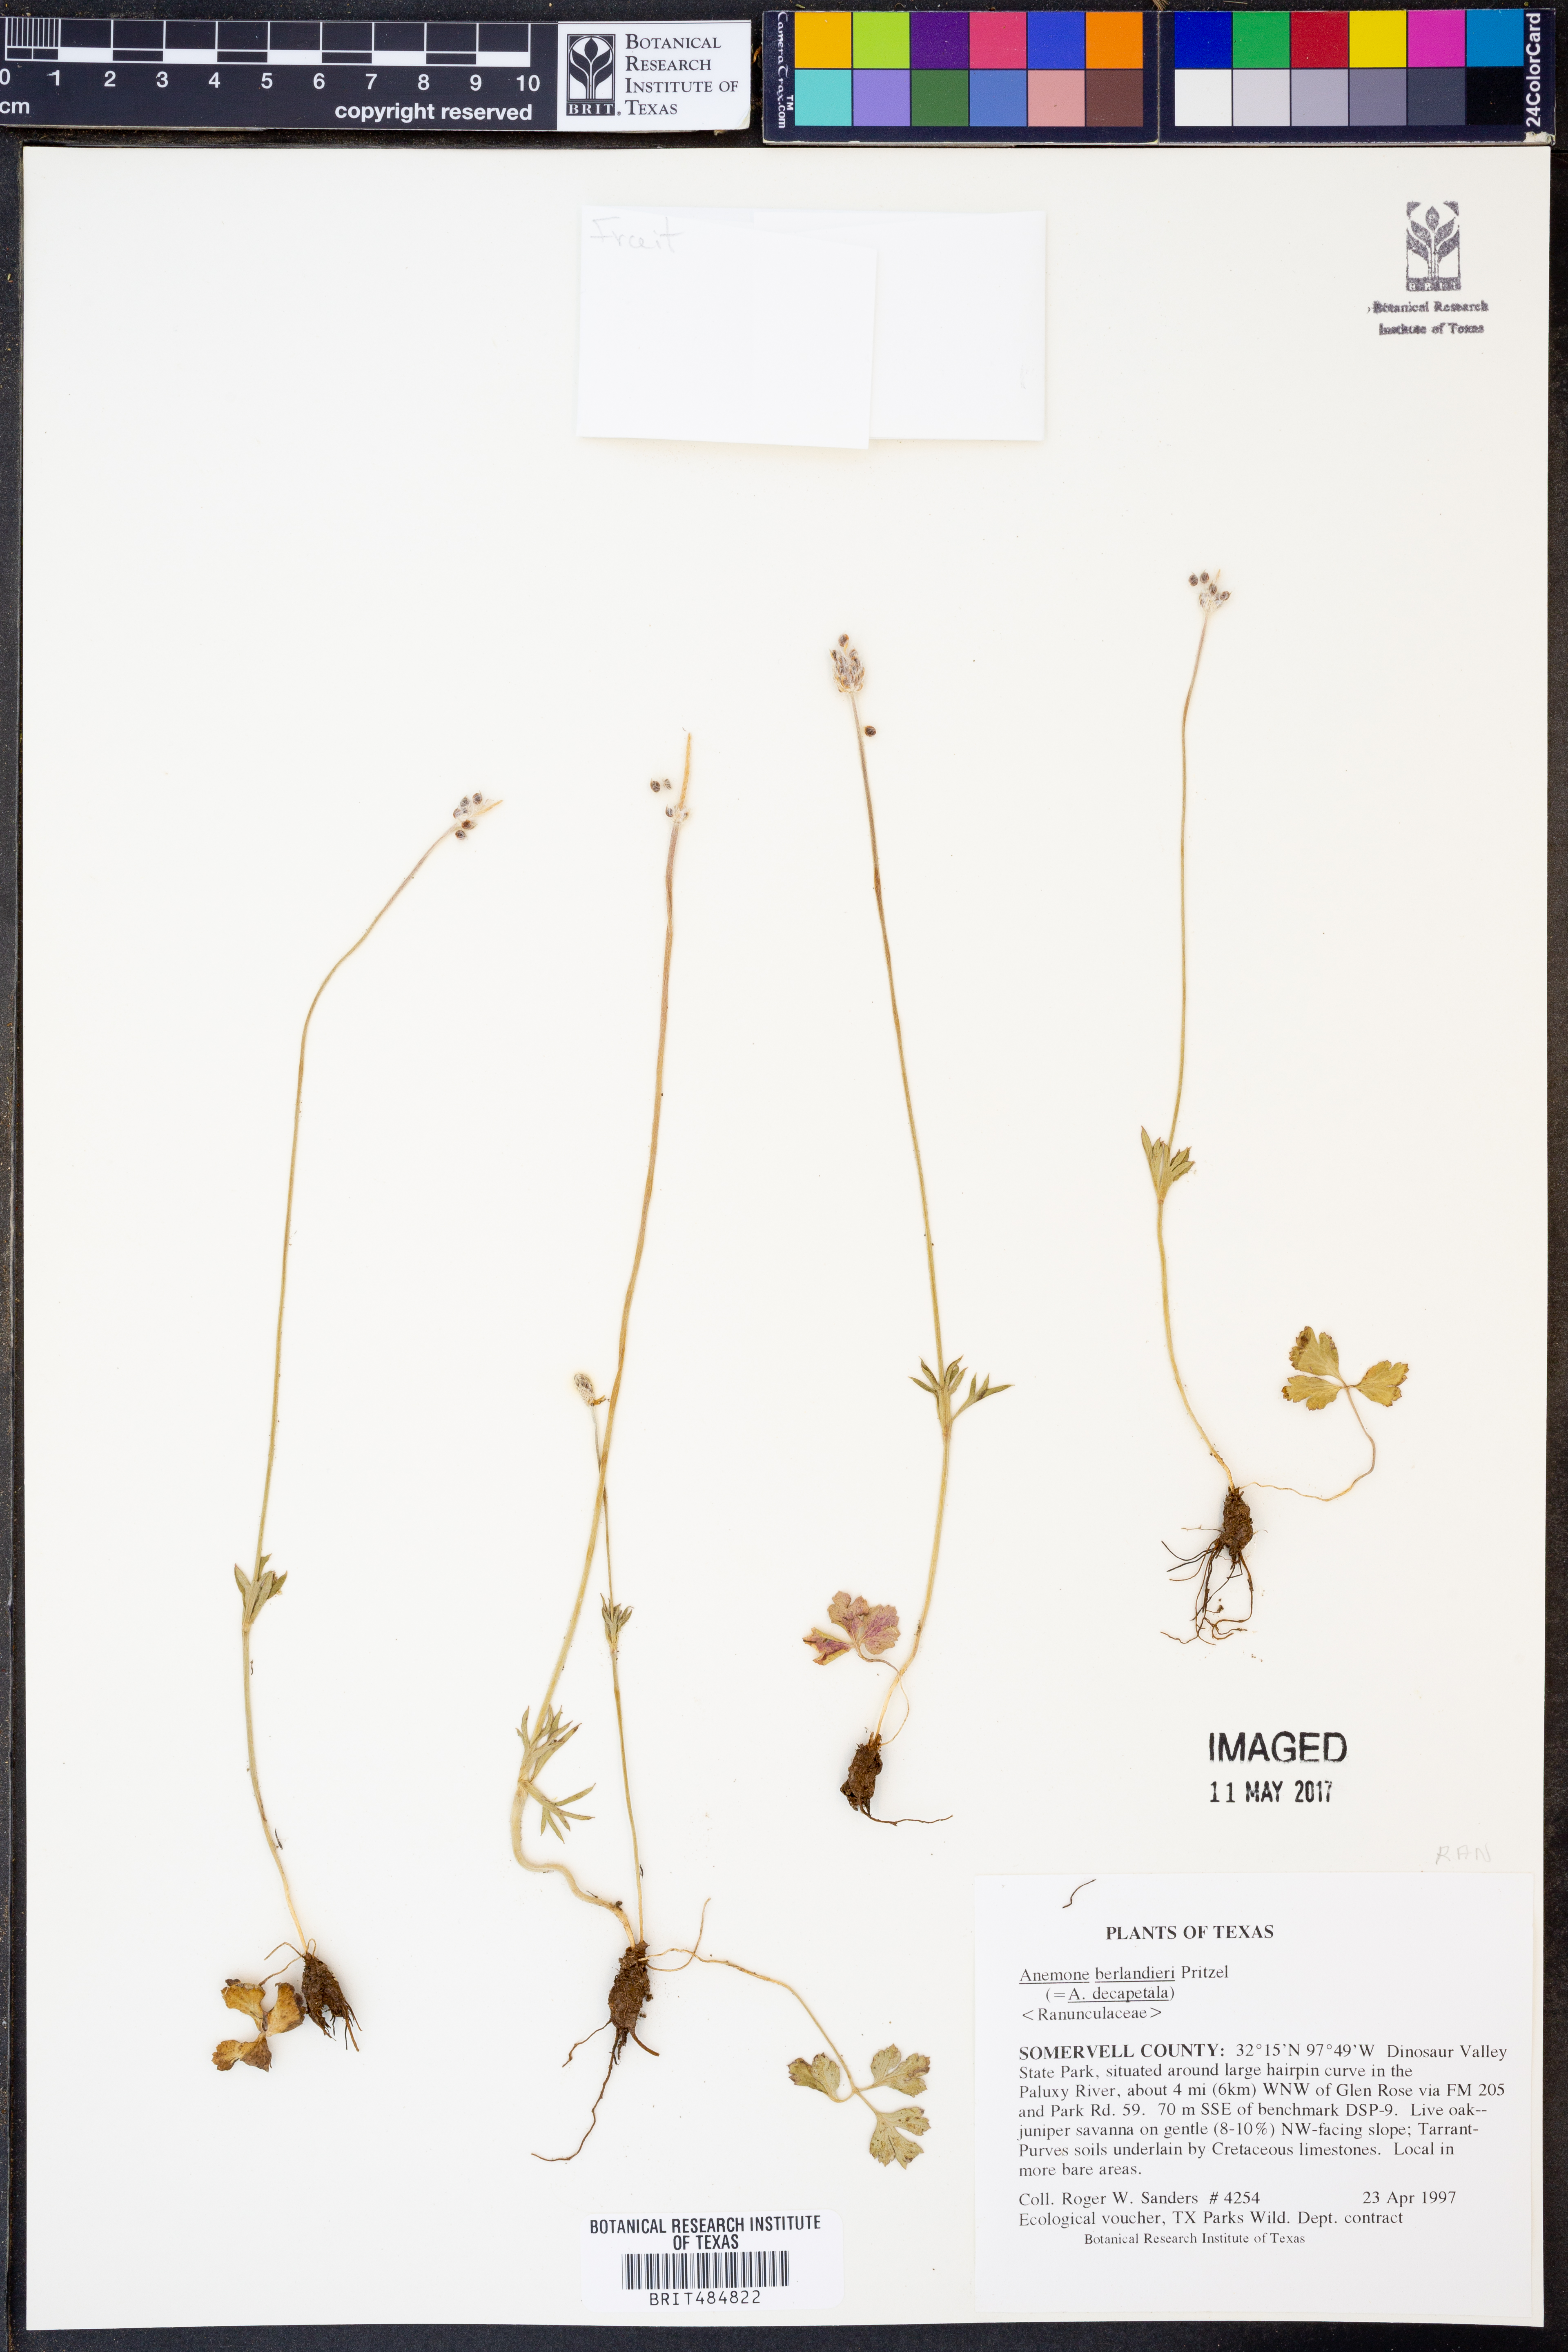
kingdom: Plantae
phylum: Tracheophyta
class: Magnoliopsida
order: Ranunculales
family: Ranunculaceae
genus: Anemone
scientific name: Anemone berlandieri
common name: Ten-petal anemone
